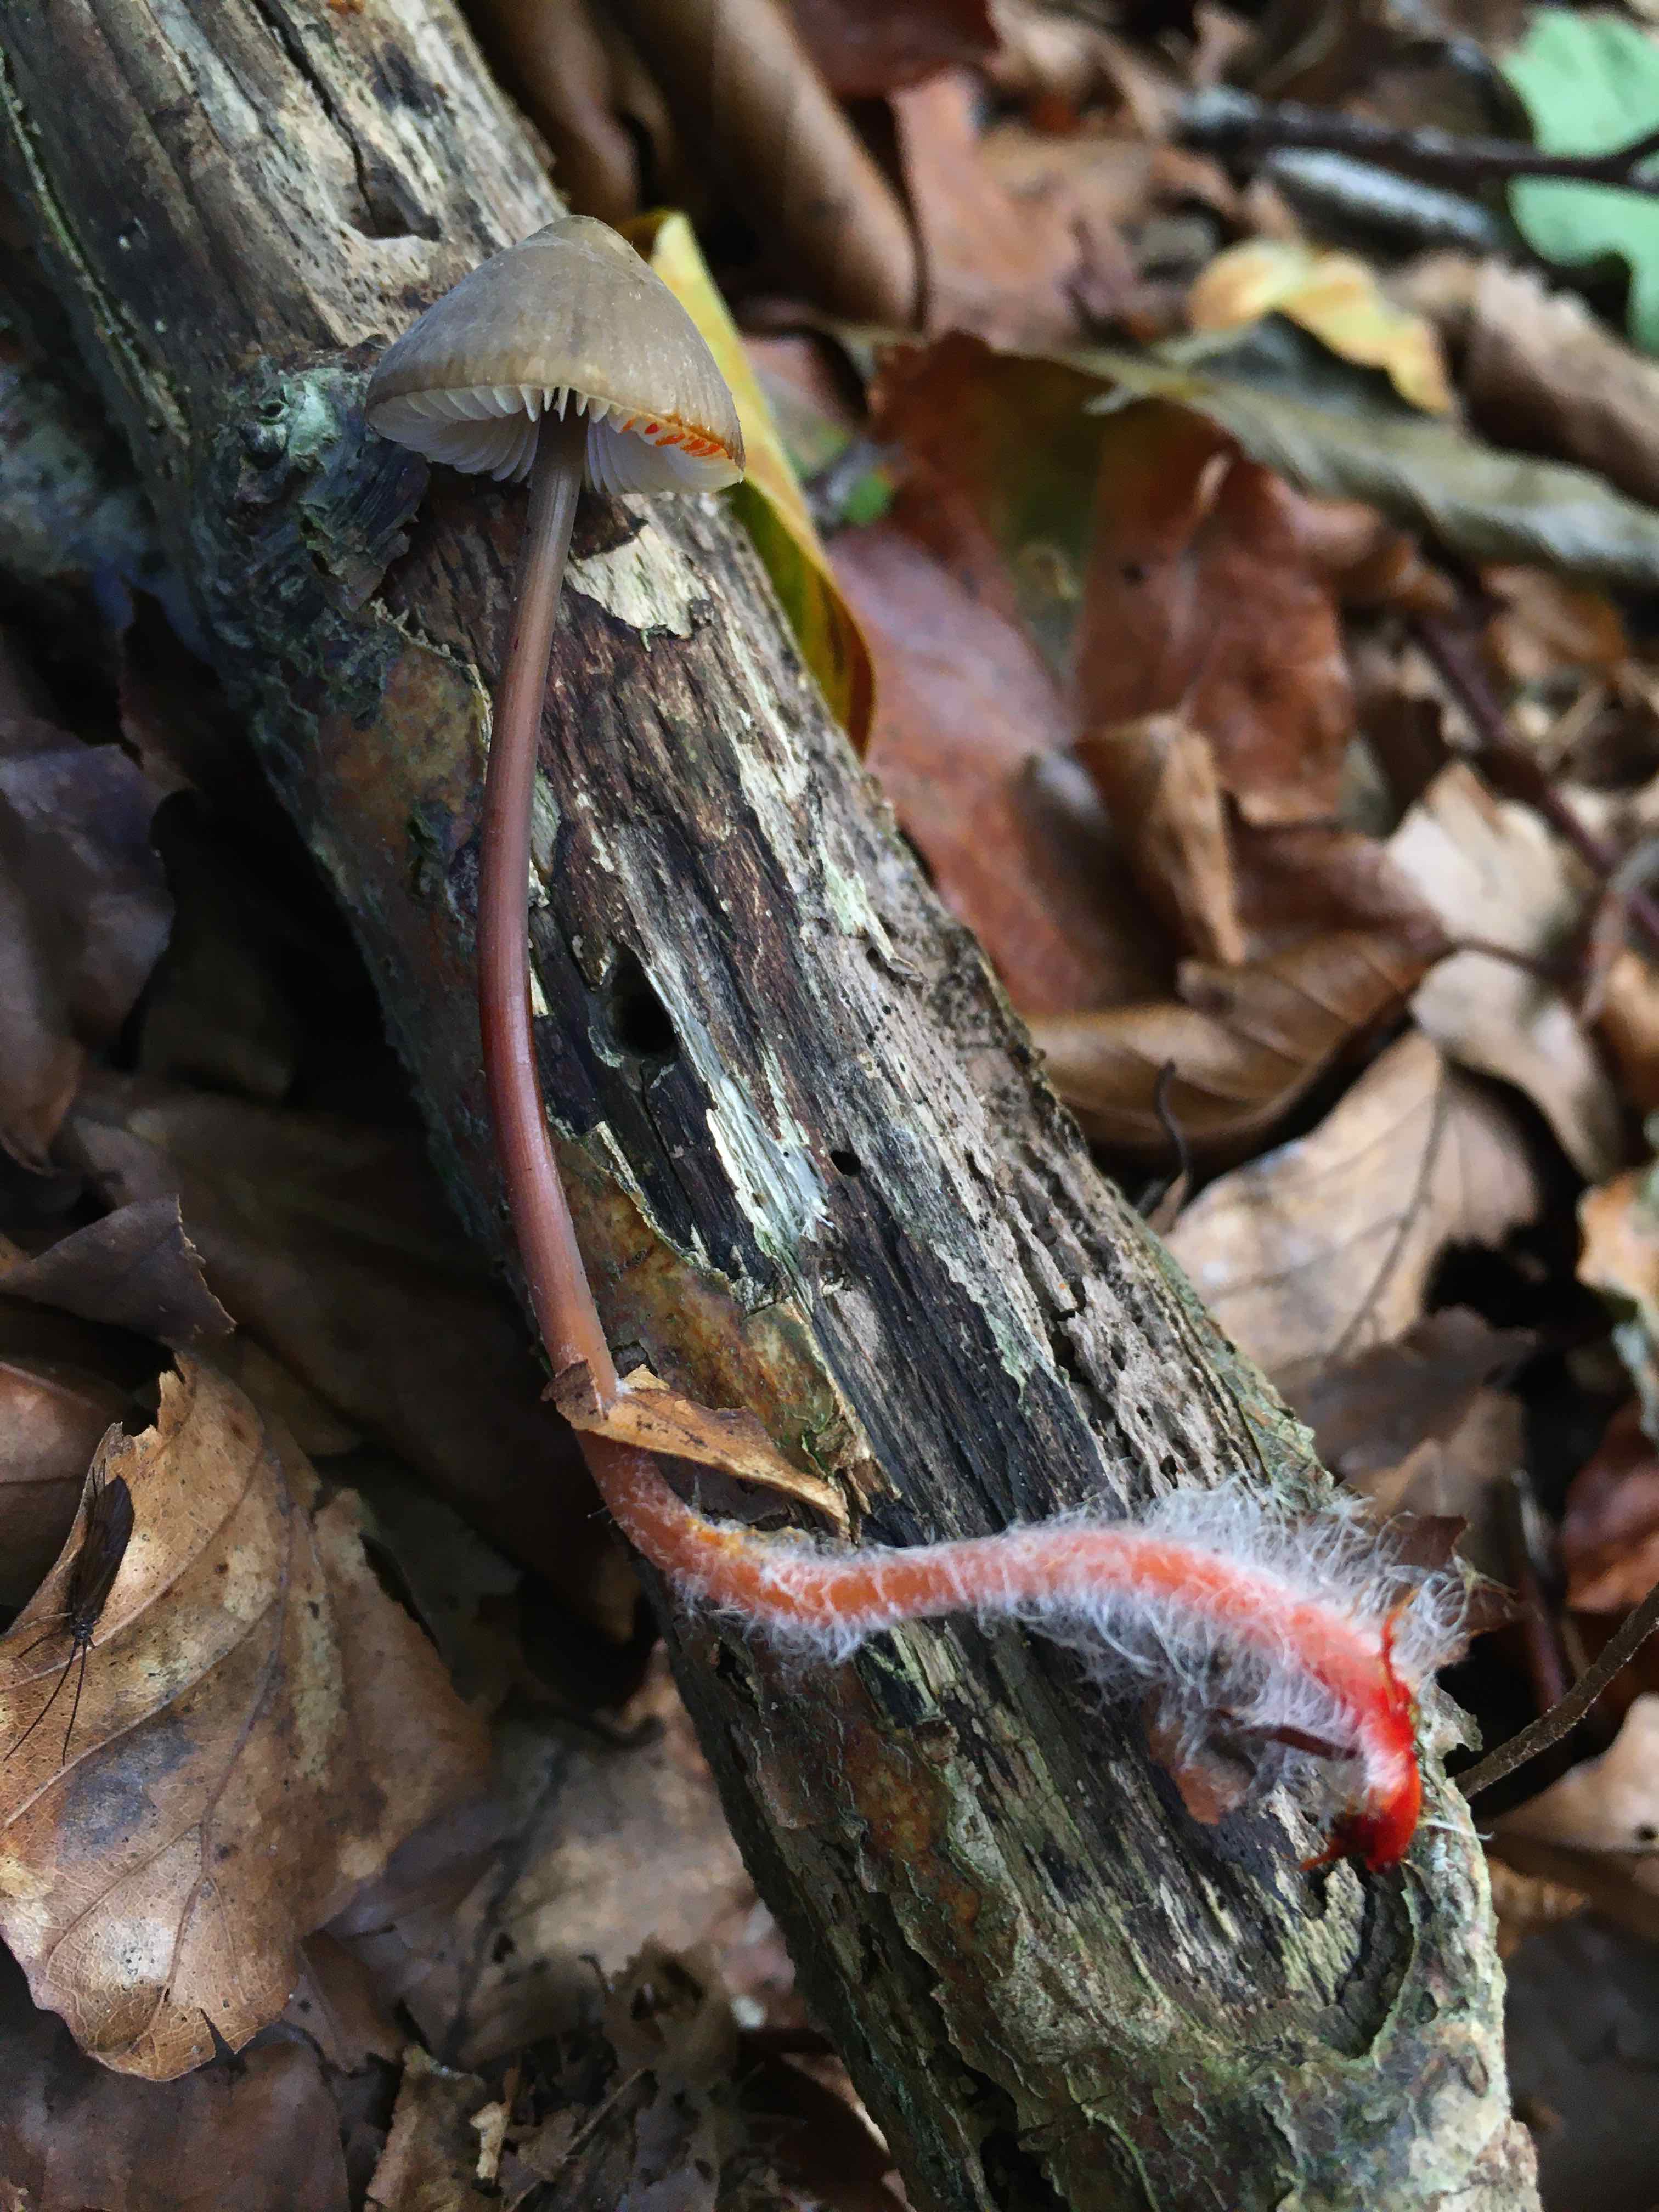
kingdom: Fungi
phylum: Basidiomycota
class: Agaricomycetes
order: Agaricales
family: Mycenaceae
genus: Mycena
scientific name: Mycena crocata
